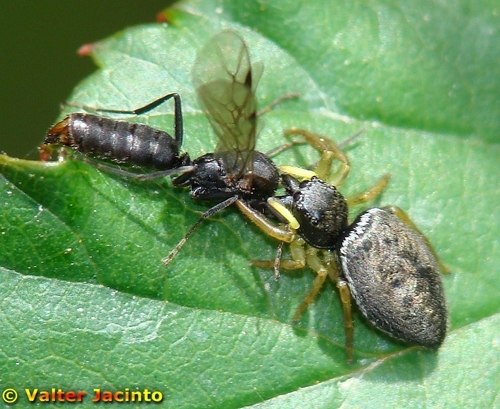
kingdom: Animalia
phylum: Arthropoda
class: Arachnida
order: Araneae
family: Salticidae
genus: Heliophanus
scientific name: Heliophanus flavipes
